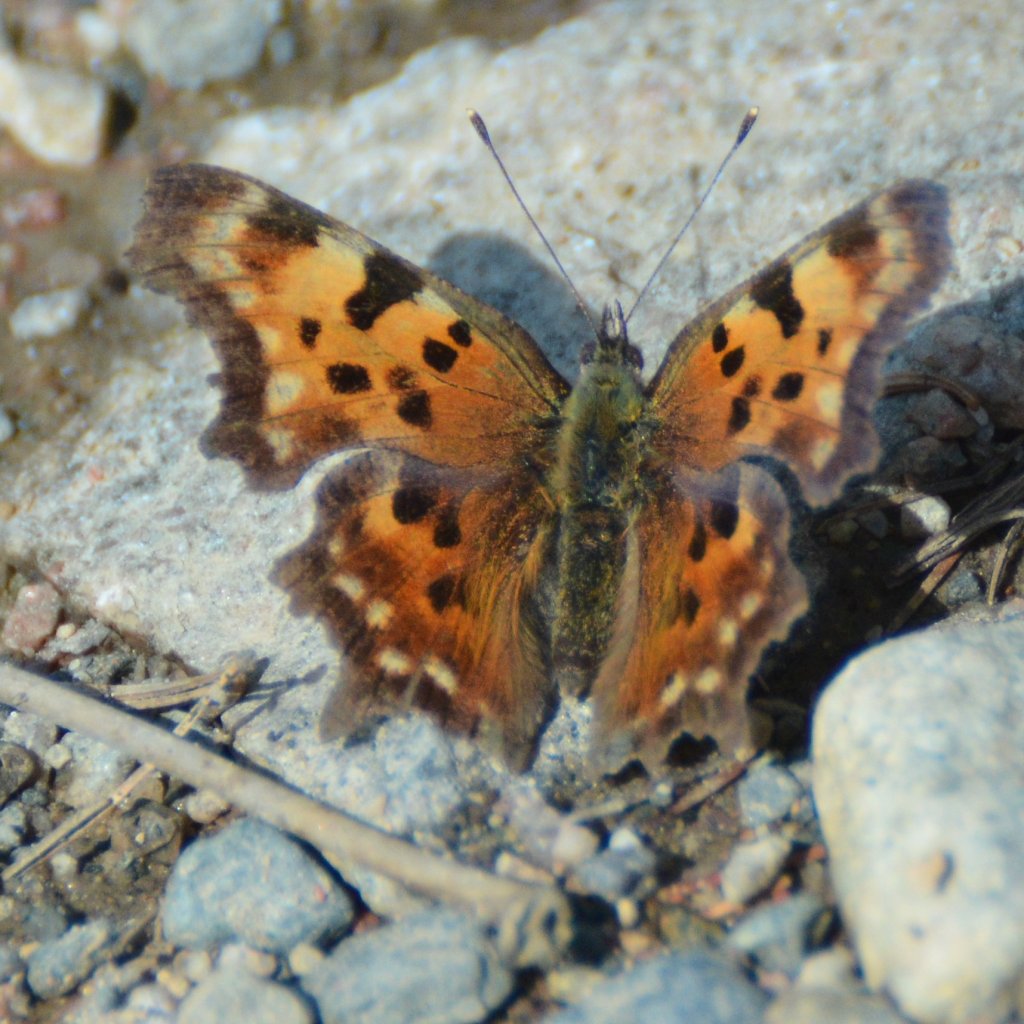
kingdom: Animalia
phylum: Arthropoda
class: Insecta
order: Lepidoptera
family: Nymphalidae
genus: Polygonia
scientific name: Polygonia faunus
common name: Green Comma
